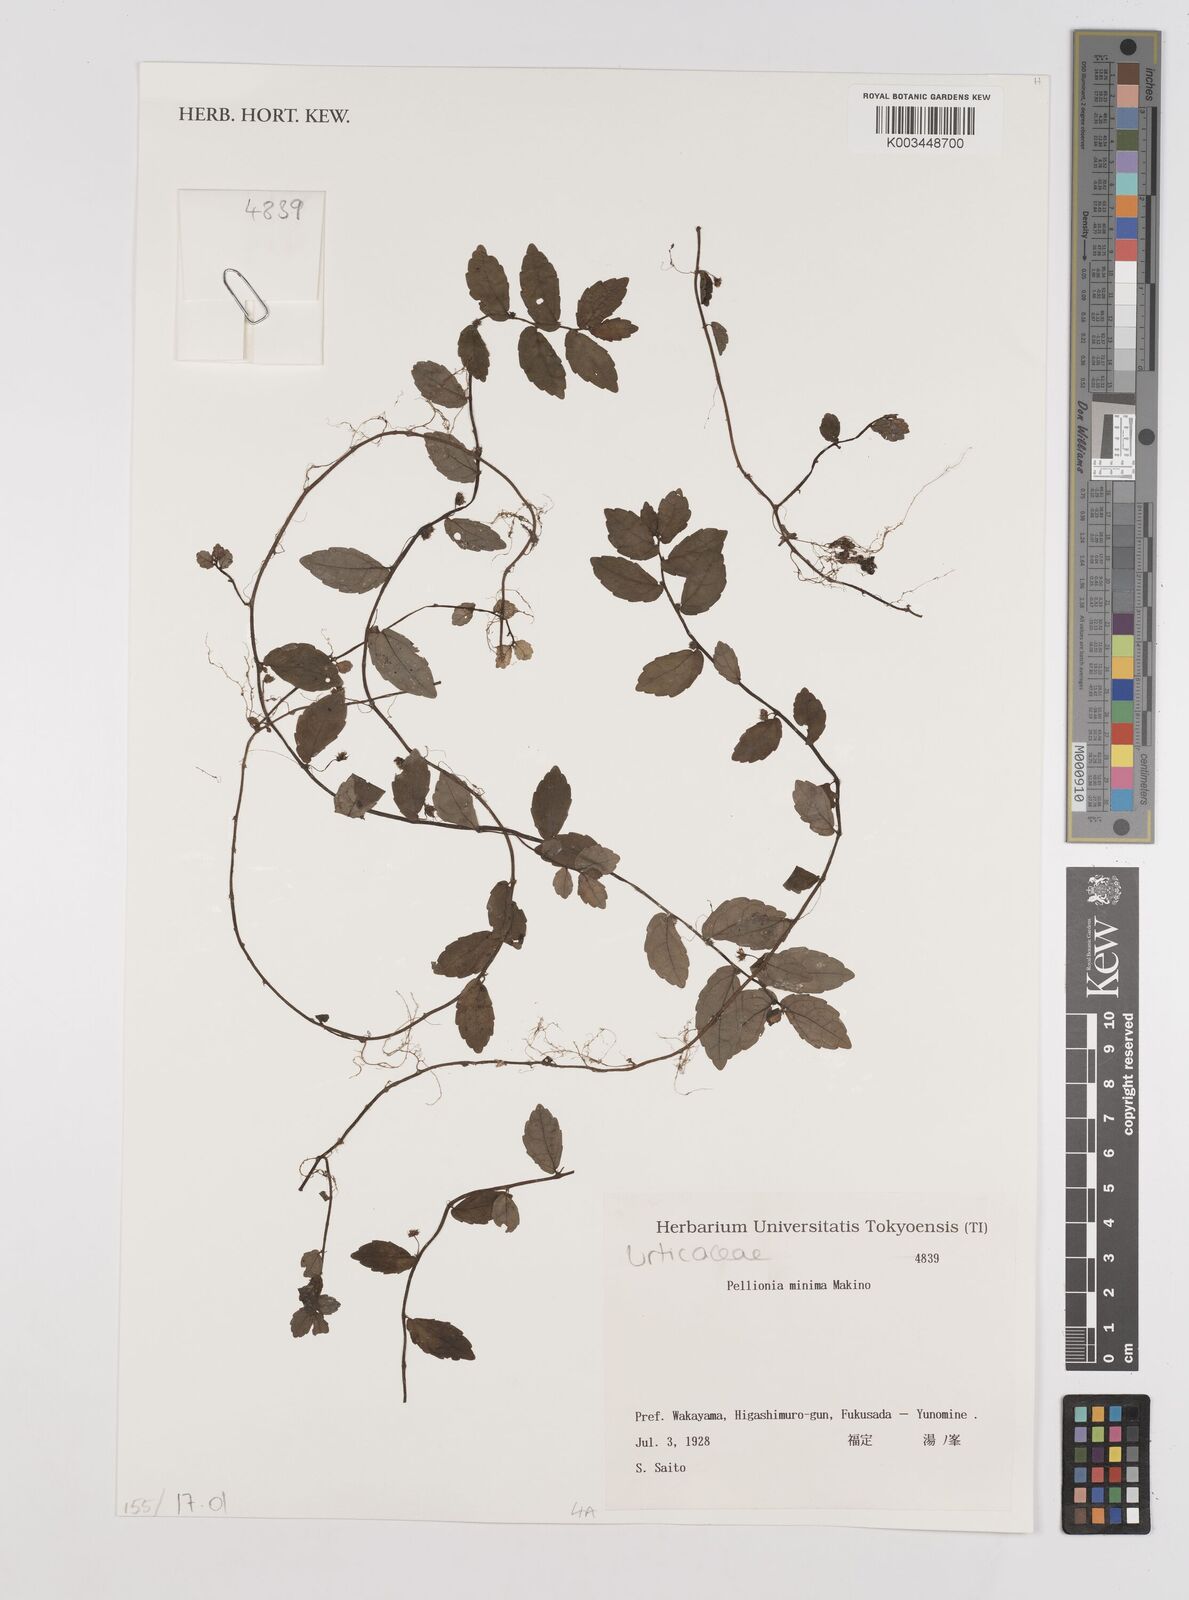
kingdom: Plantae
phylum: Tracheophyta
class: Magnoliopsida
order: Rosales
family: Urticaceae
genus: Elatostema
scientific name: Elatostema radicans
